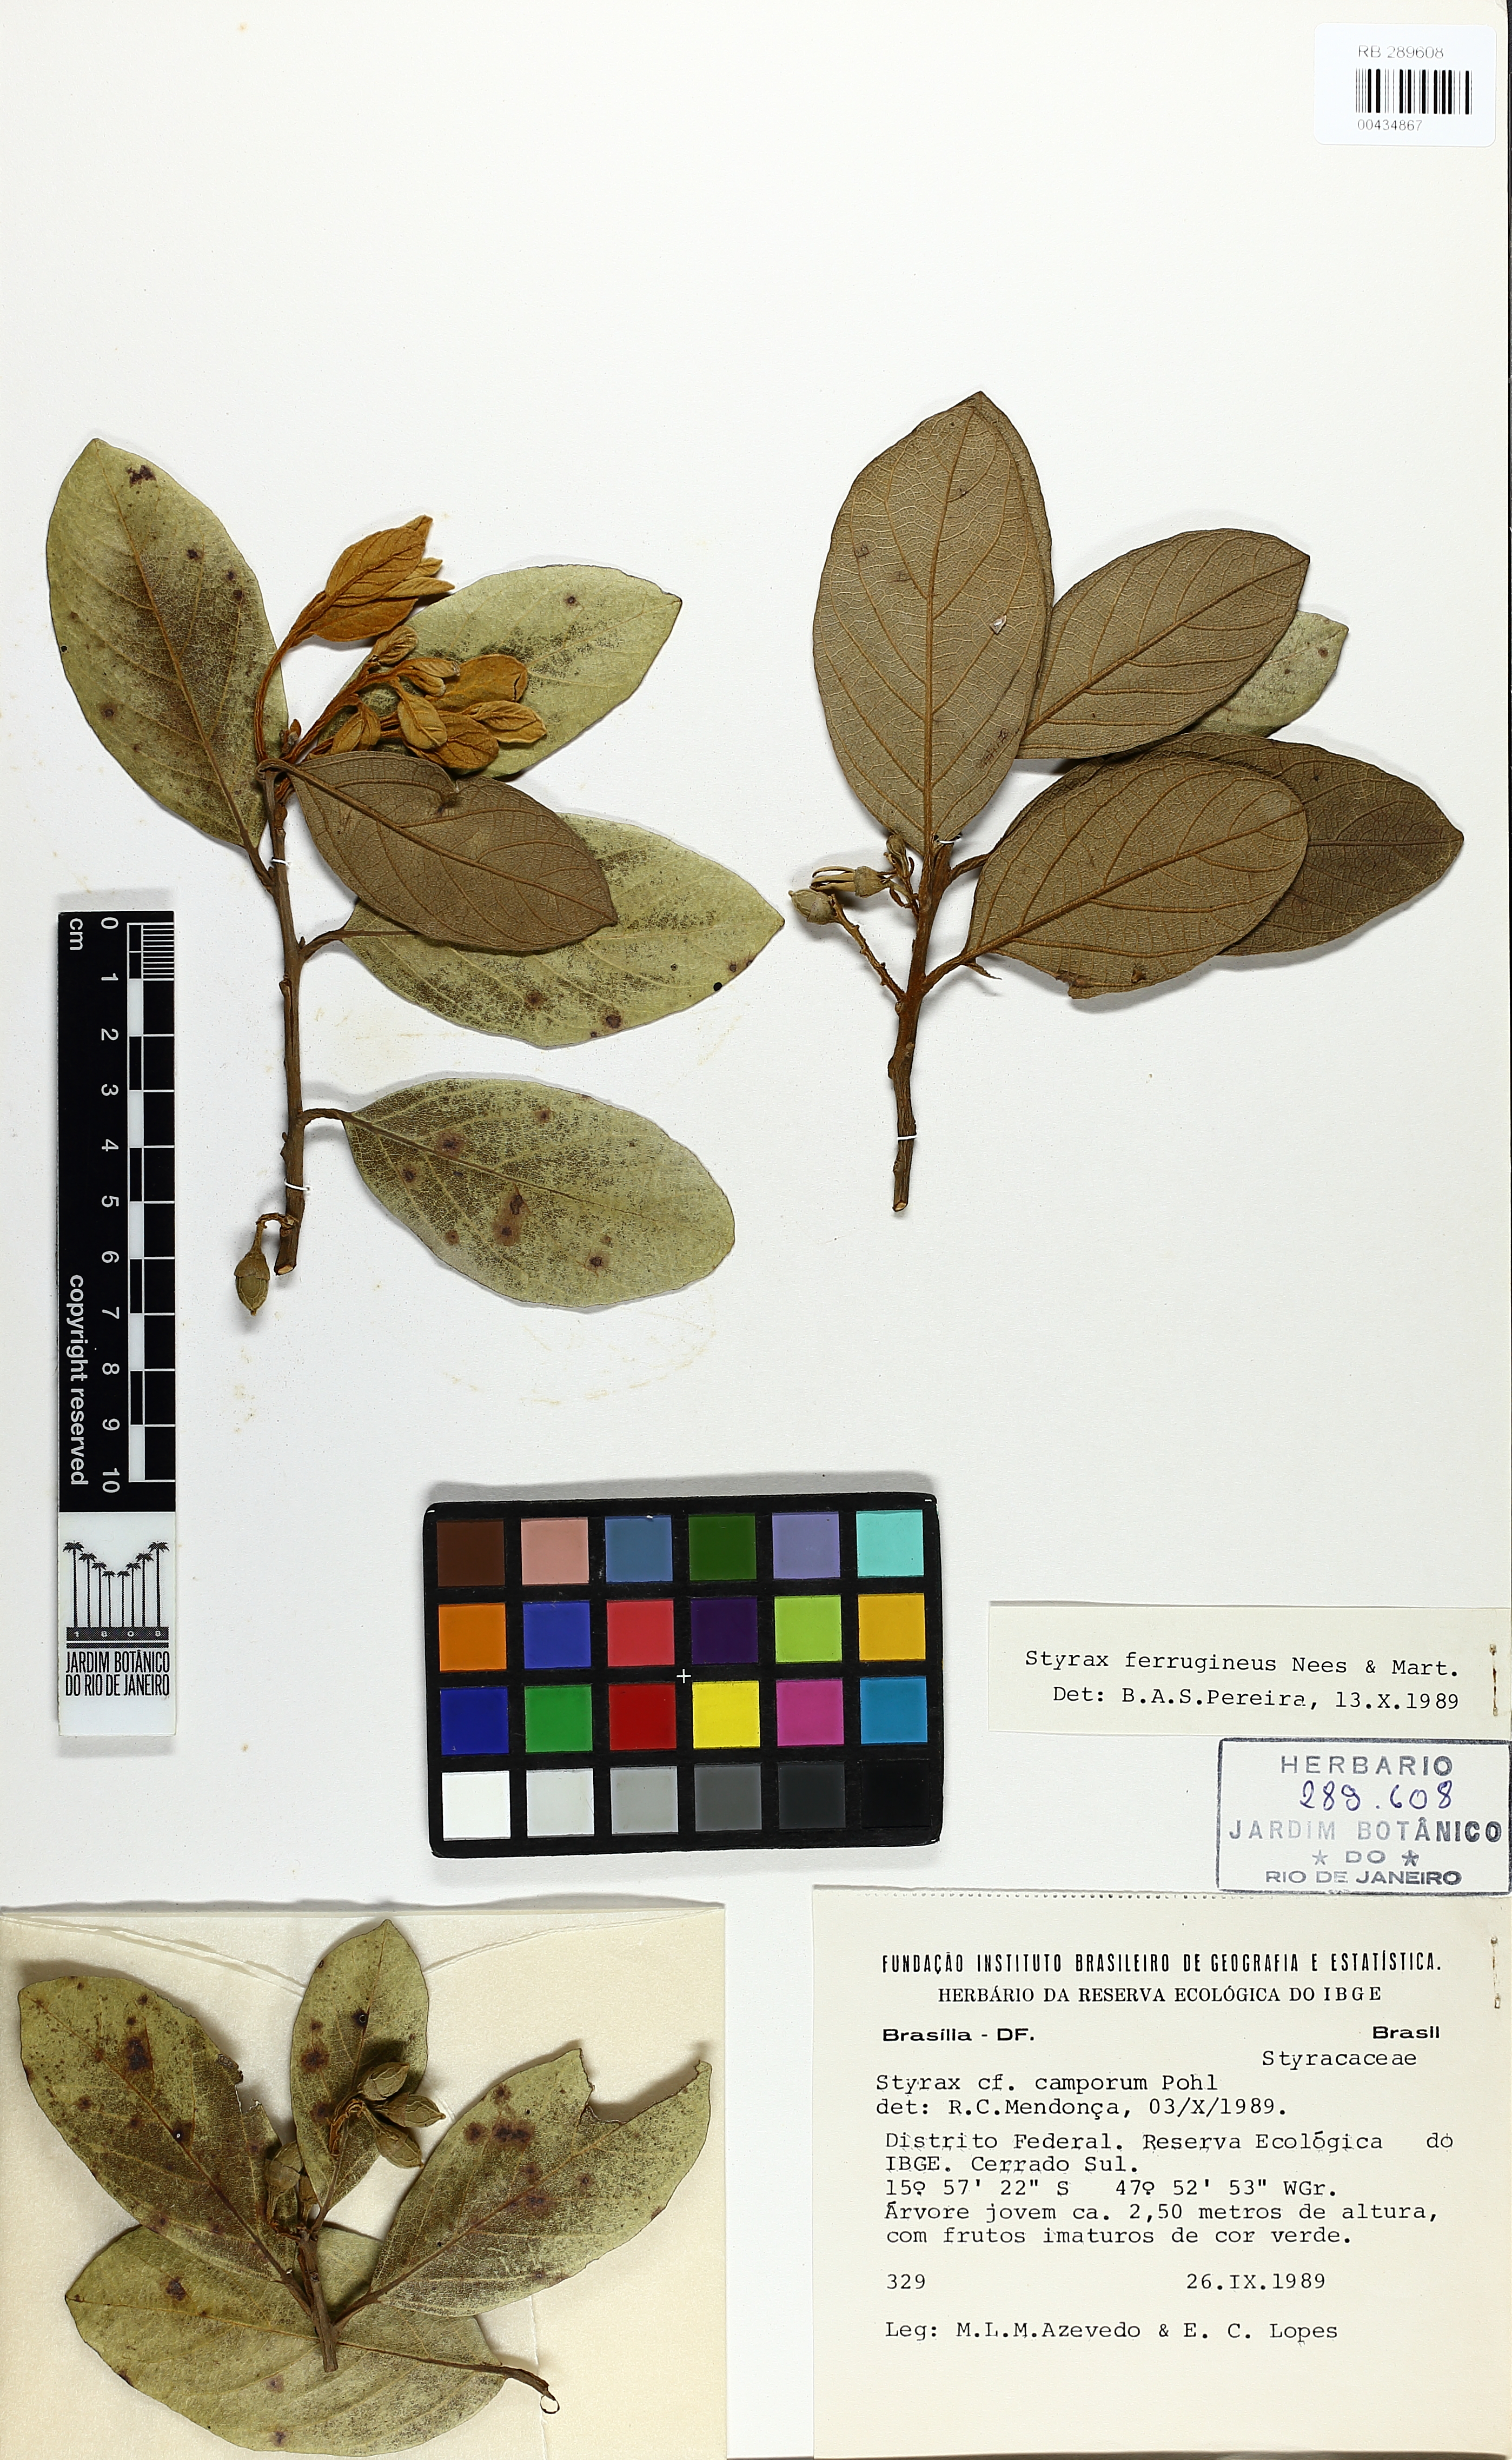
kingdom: Plantae
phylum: Tracheophyta
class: Magnoliopsida
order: Ericales
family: Styracaceae
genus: Styrax
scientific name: Styrax ferrugineus
